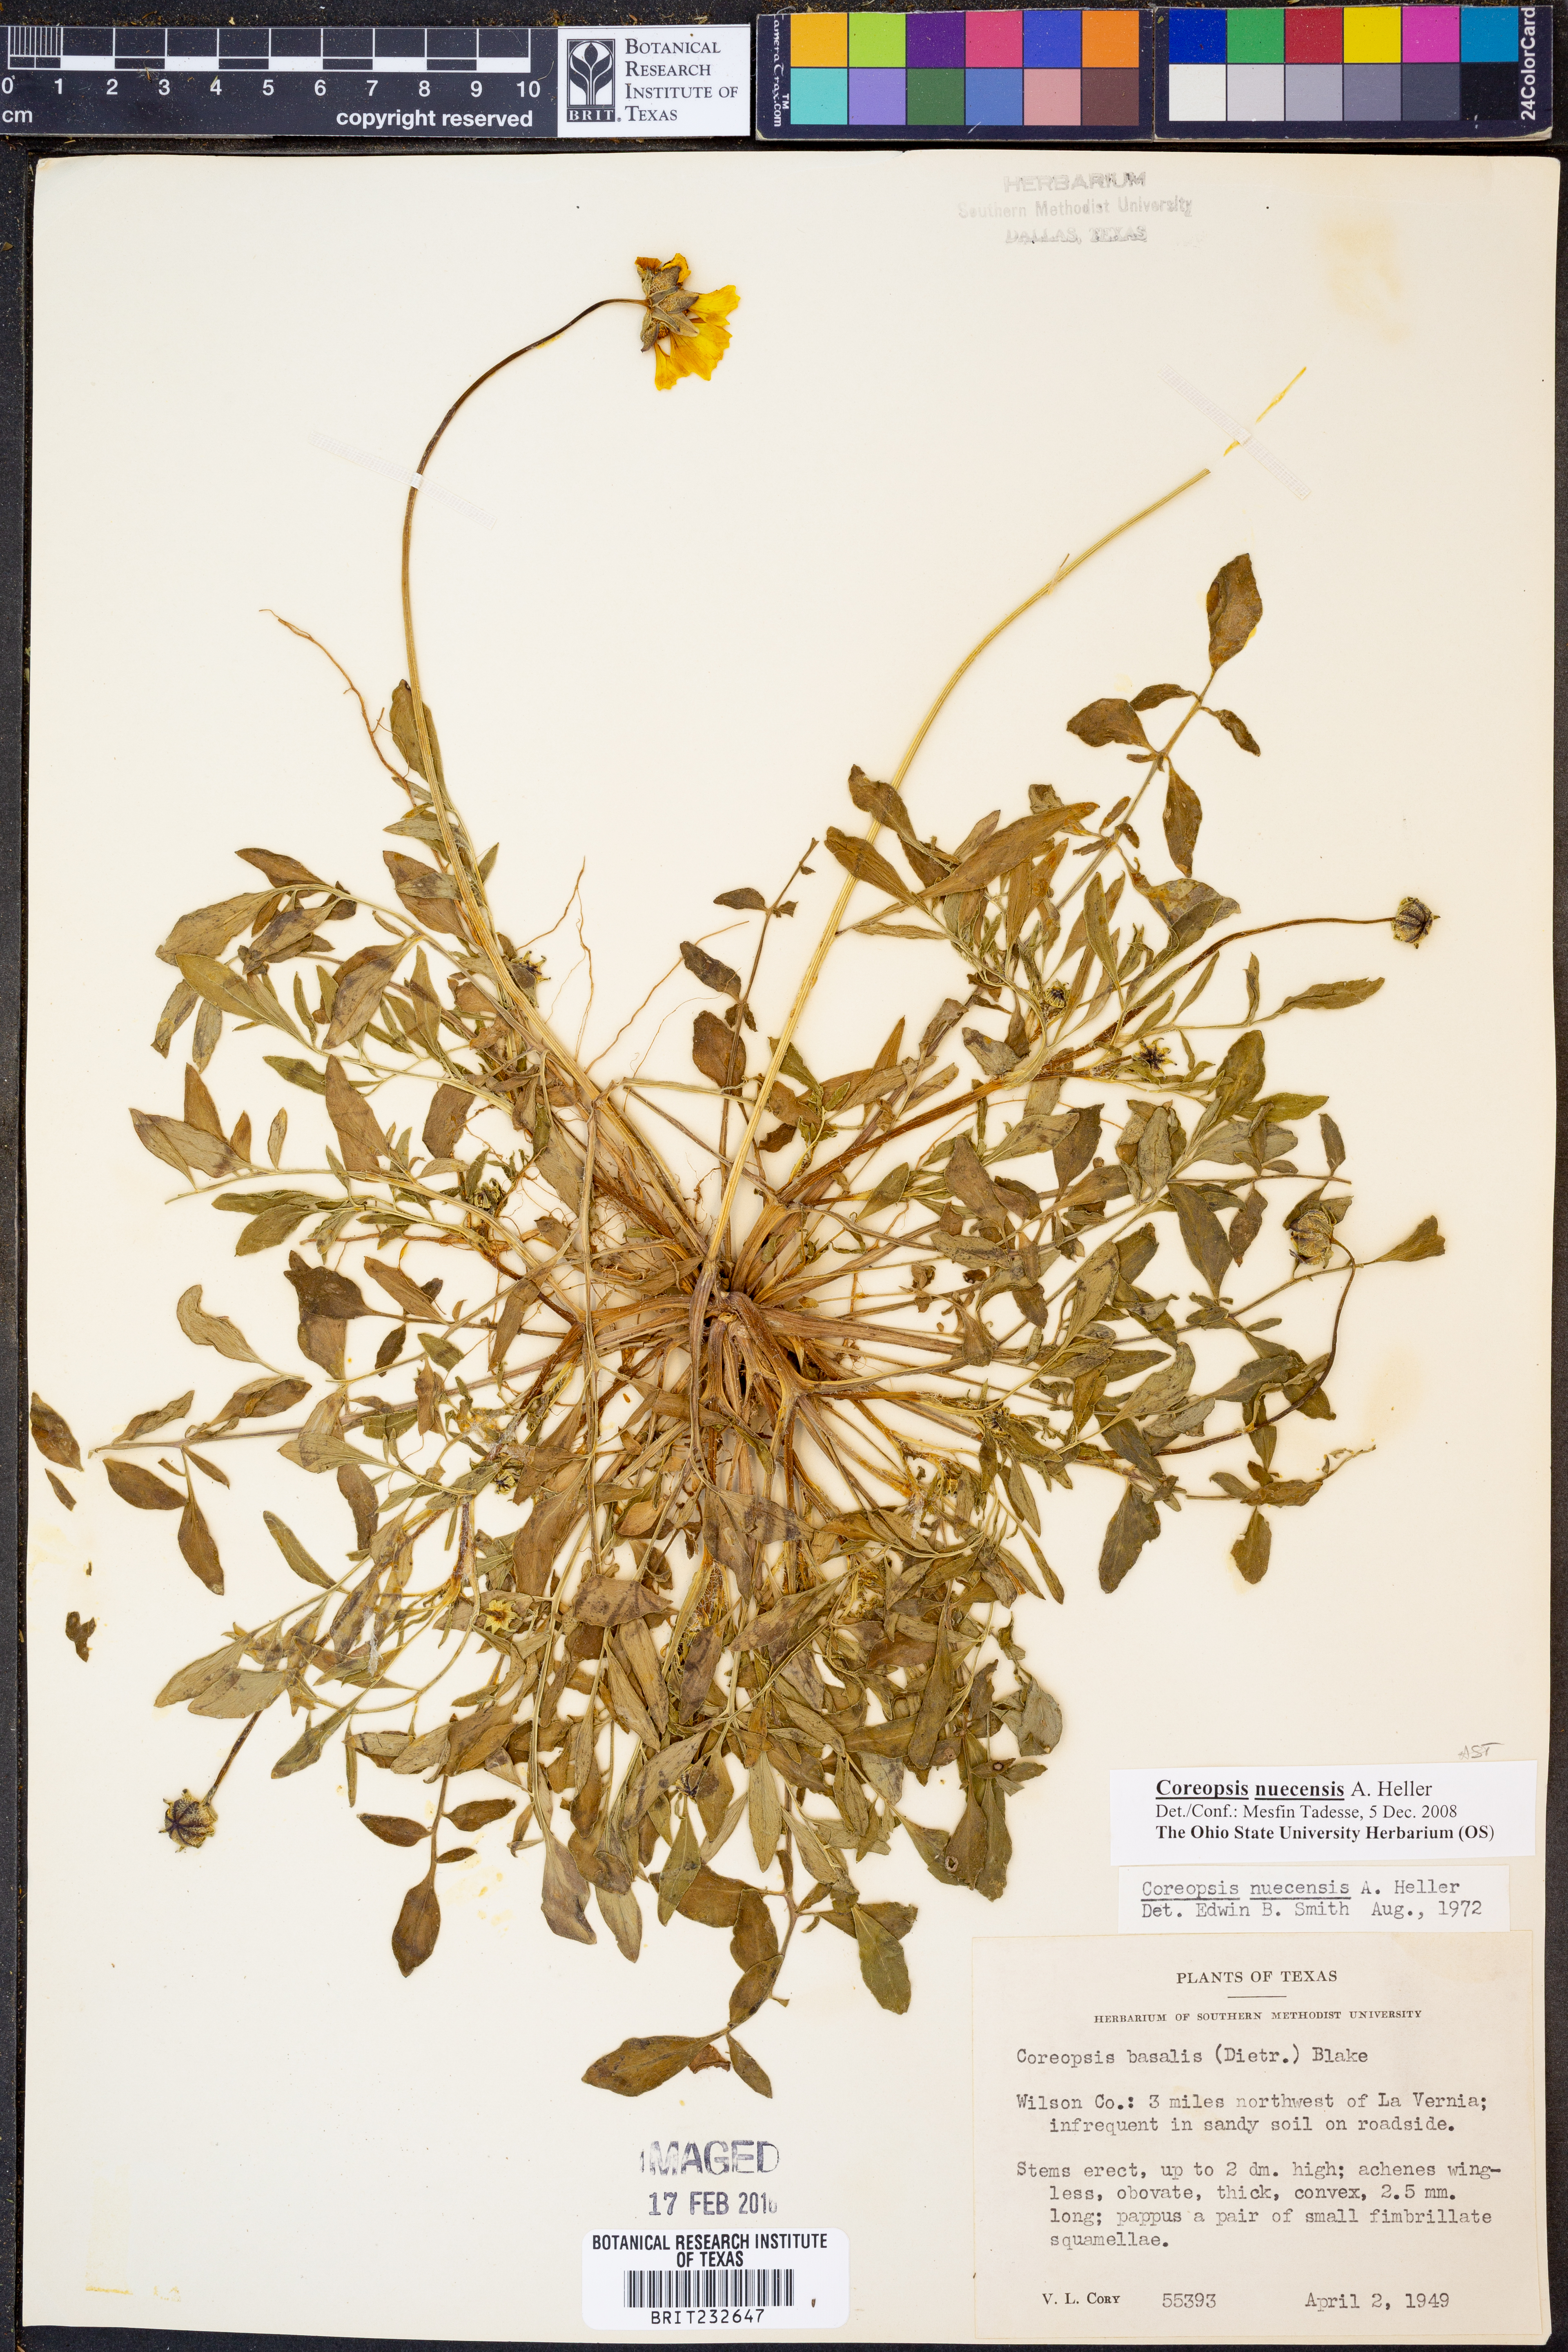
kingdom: Plantae
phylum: Tracheophyta
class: Magnoliopsida
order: Asterales
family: Asteraceae
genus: Coreopsis
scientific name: Coreopsis nuecensis
